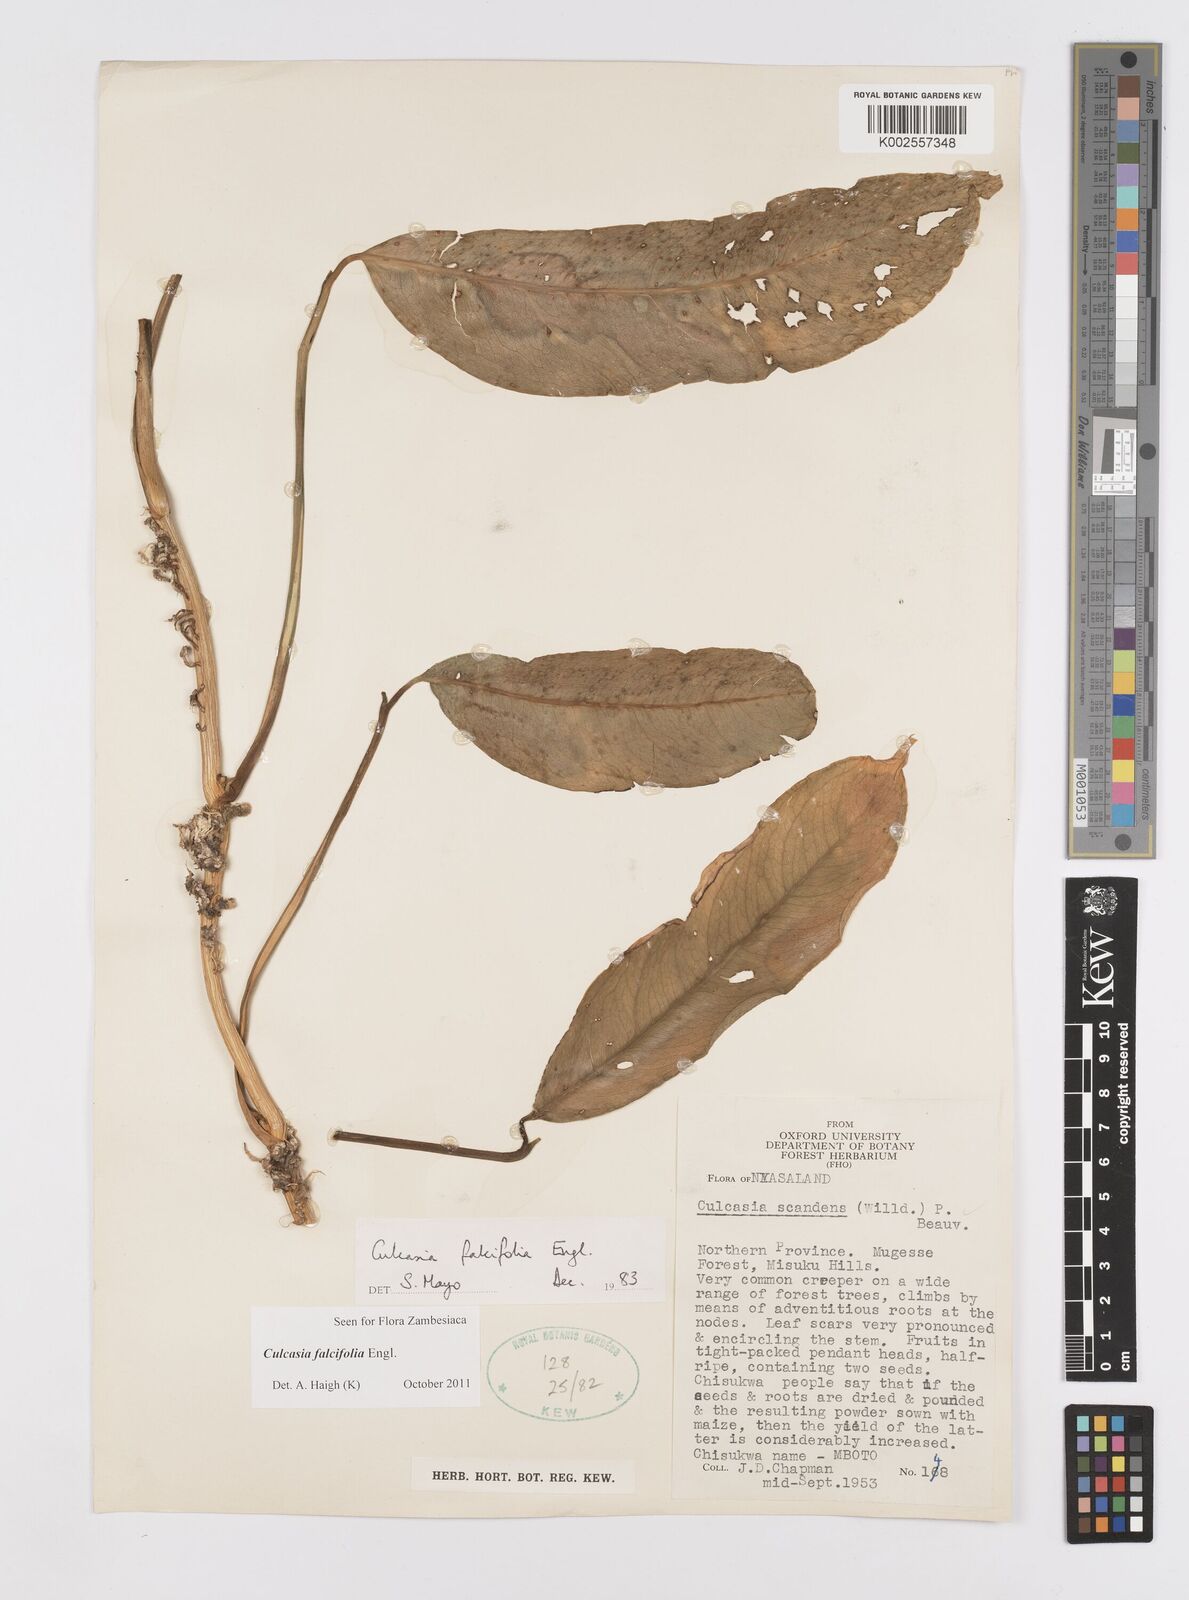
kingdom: Plantae
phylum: Tracheophyta
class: Liliopsida
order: Alismatales
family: Araceae
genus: Culcasia
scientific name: Culcasia falcifolia
